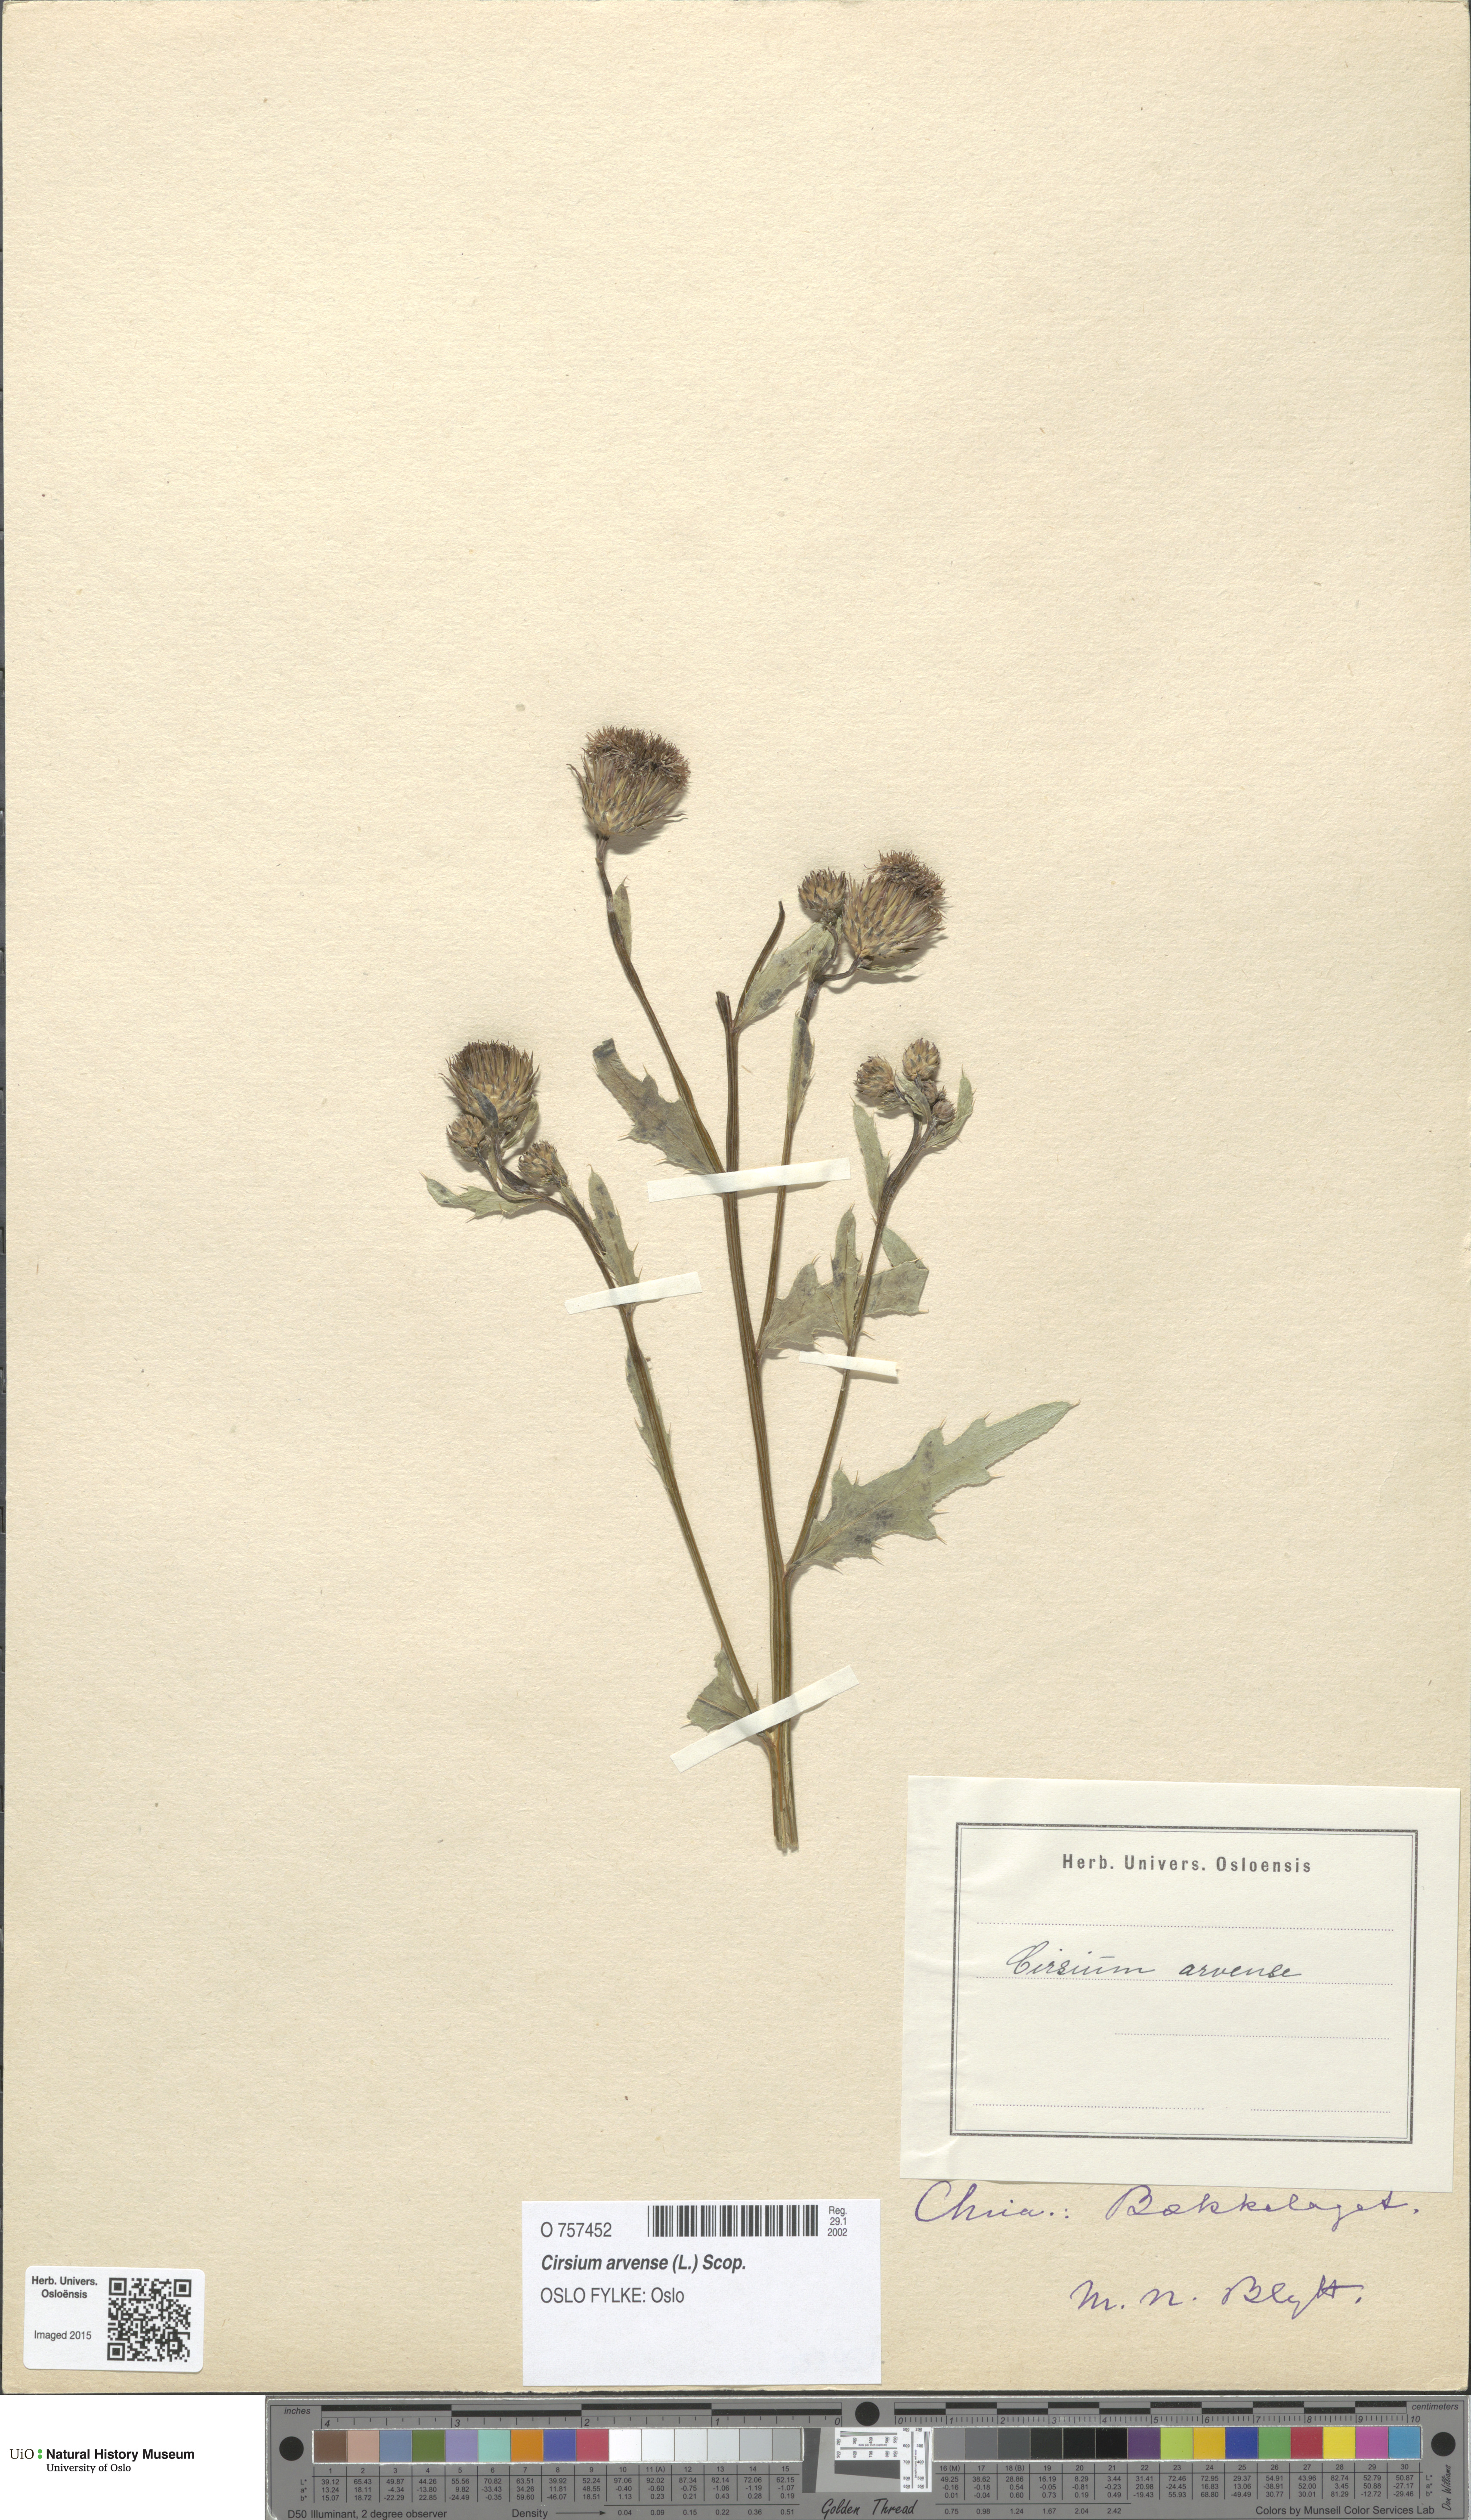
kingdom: Plantae
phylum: Tracheophyta
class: Magnoliopsida
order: Asterales
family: Asteraceae
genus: Cirsium
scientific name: Cirsium arvense
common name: Creeping thistle
